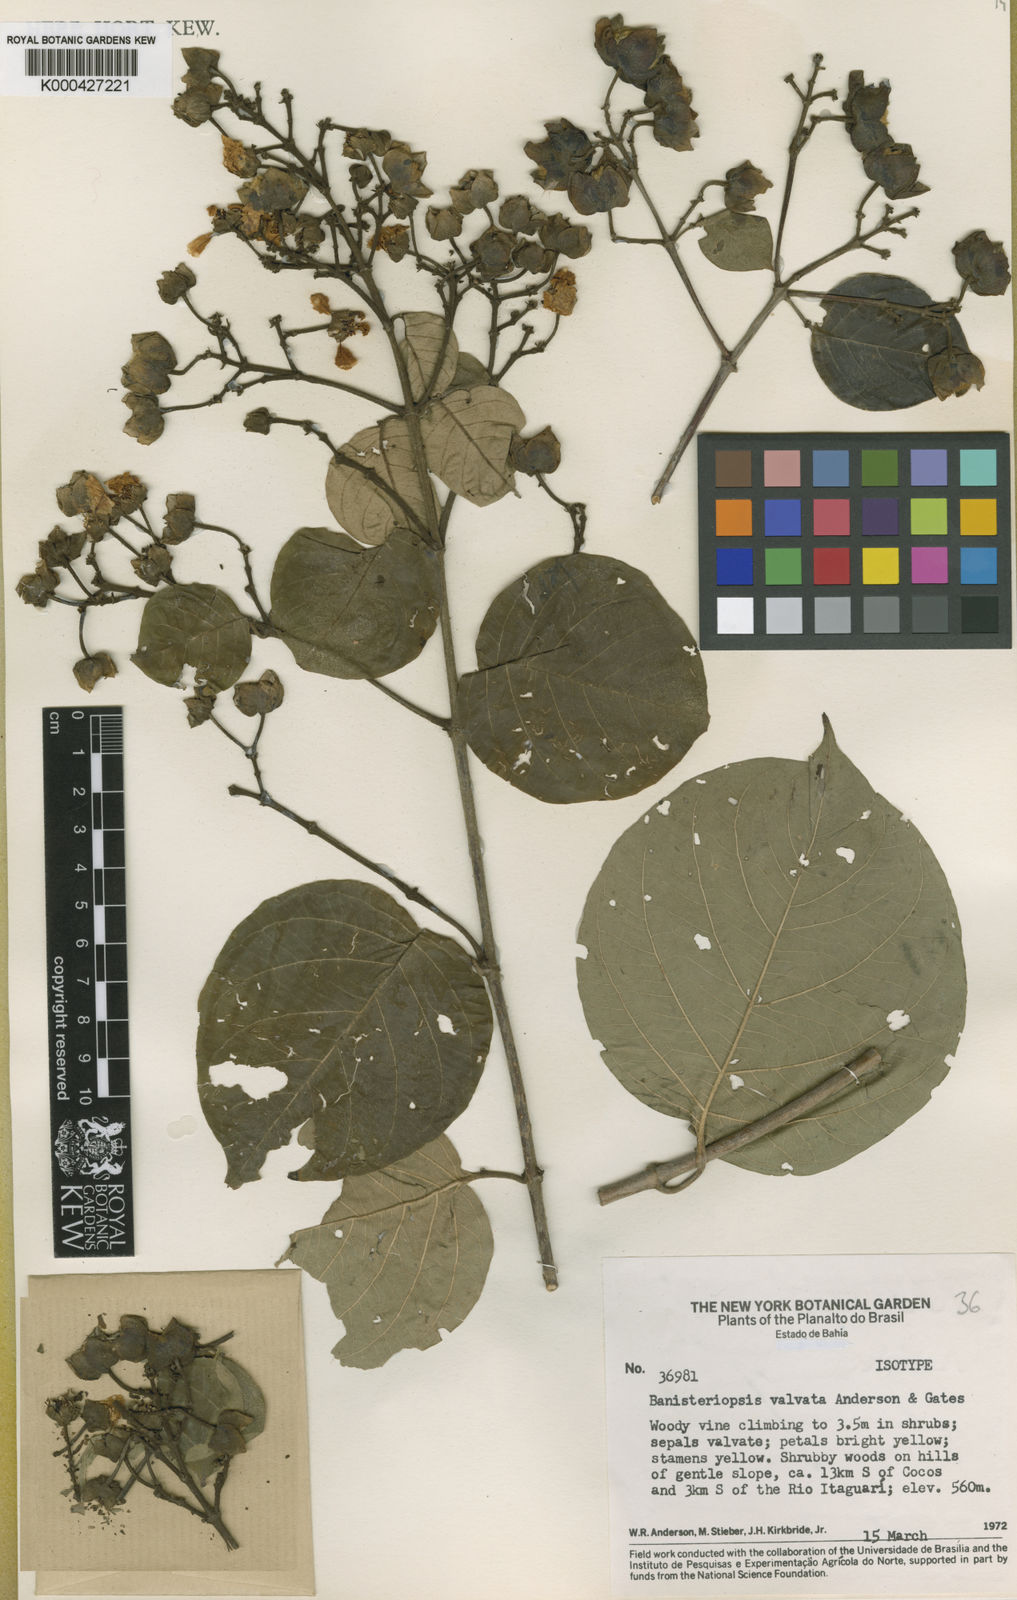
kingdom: Plantae
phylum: Tracheophyta
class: Magnoliopsida
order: Malpighiales
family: Malpighiaceae
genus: Diplopterys
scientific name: Diplopterys valvata
